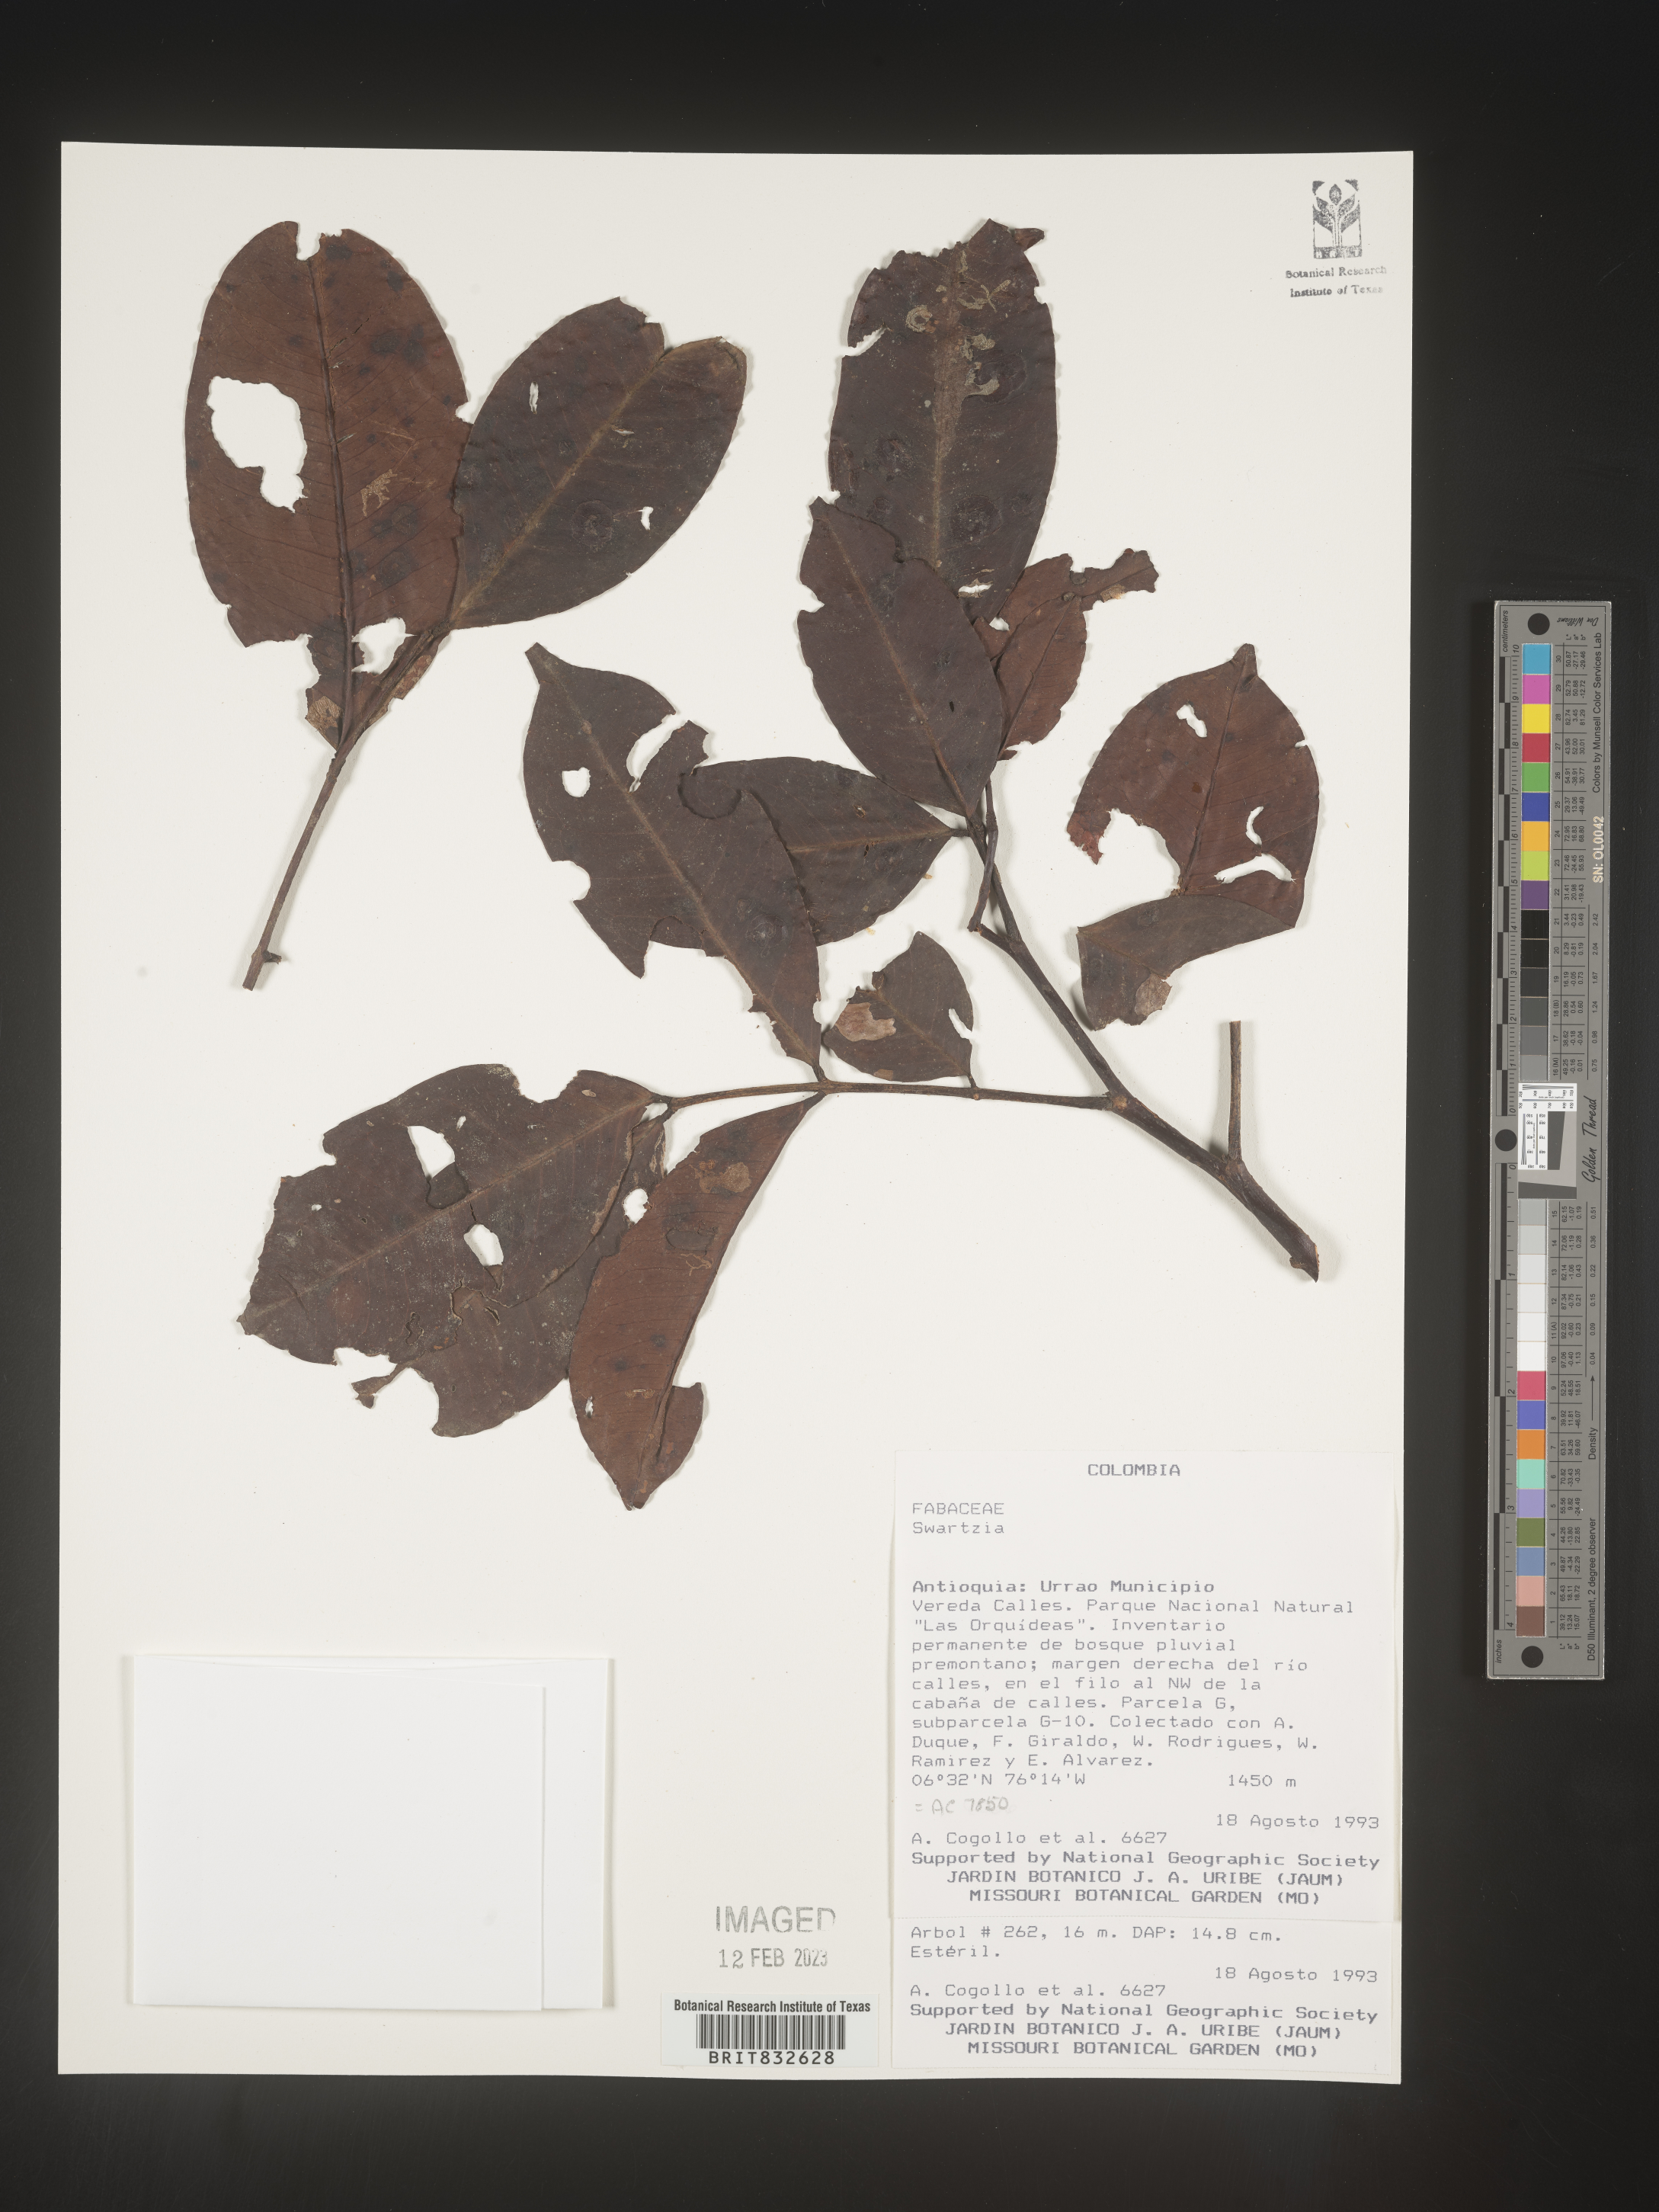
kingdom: Plantae
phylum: Tracheophyta
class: Magnoliopsida
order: Fabales
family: Fabaceae
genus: Swartzia
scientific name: Swartzia
